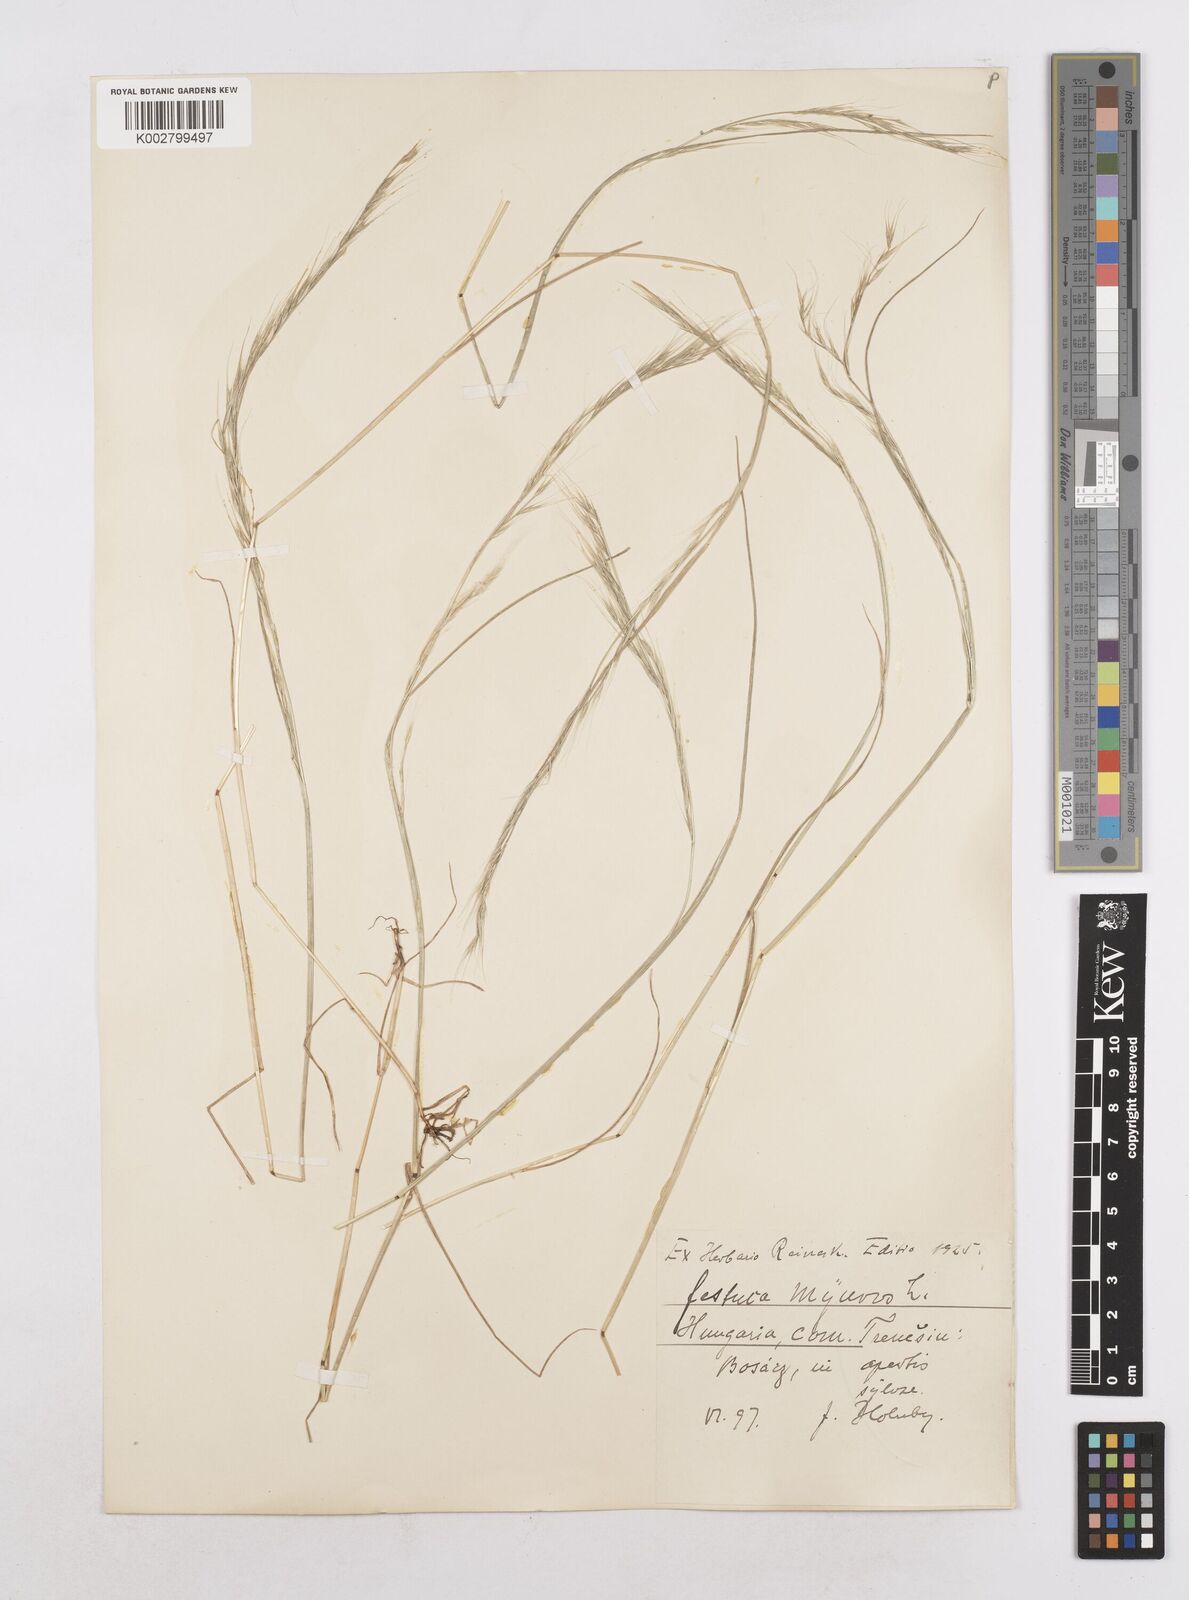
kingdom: Plantae
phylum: Tracheophyta
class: Liliopsida
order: Poales
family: Poaceae
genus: Festuca
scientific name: Festuca myuros
